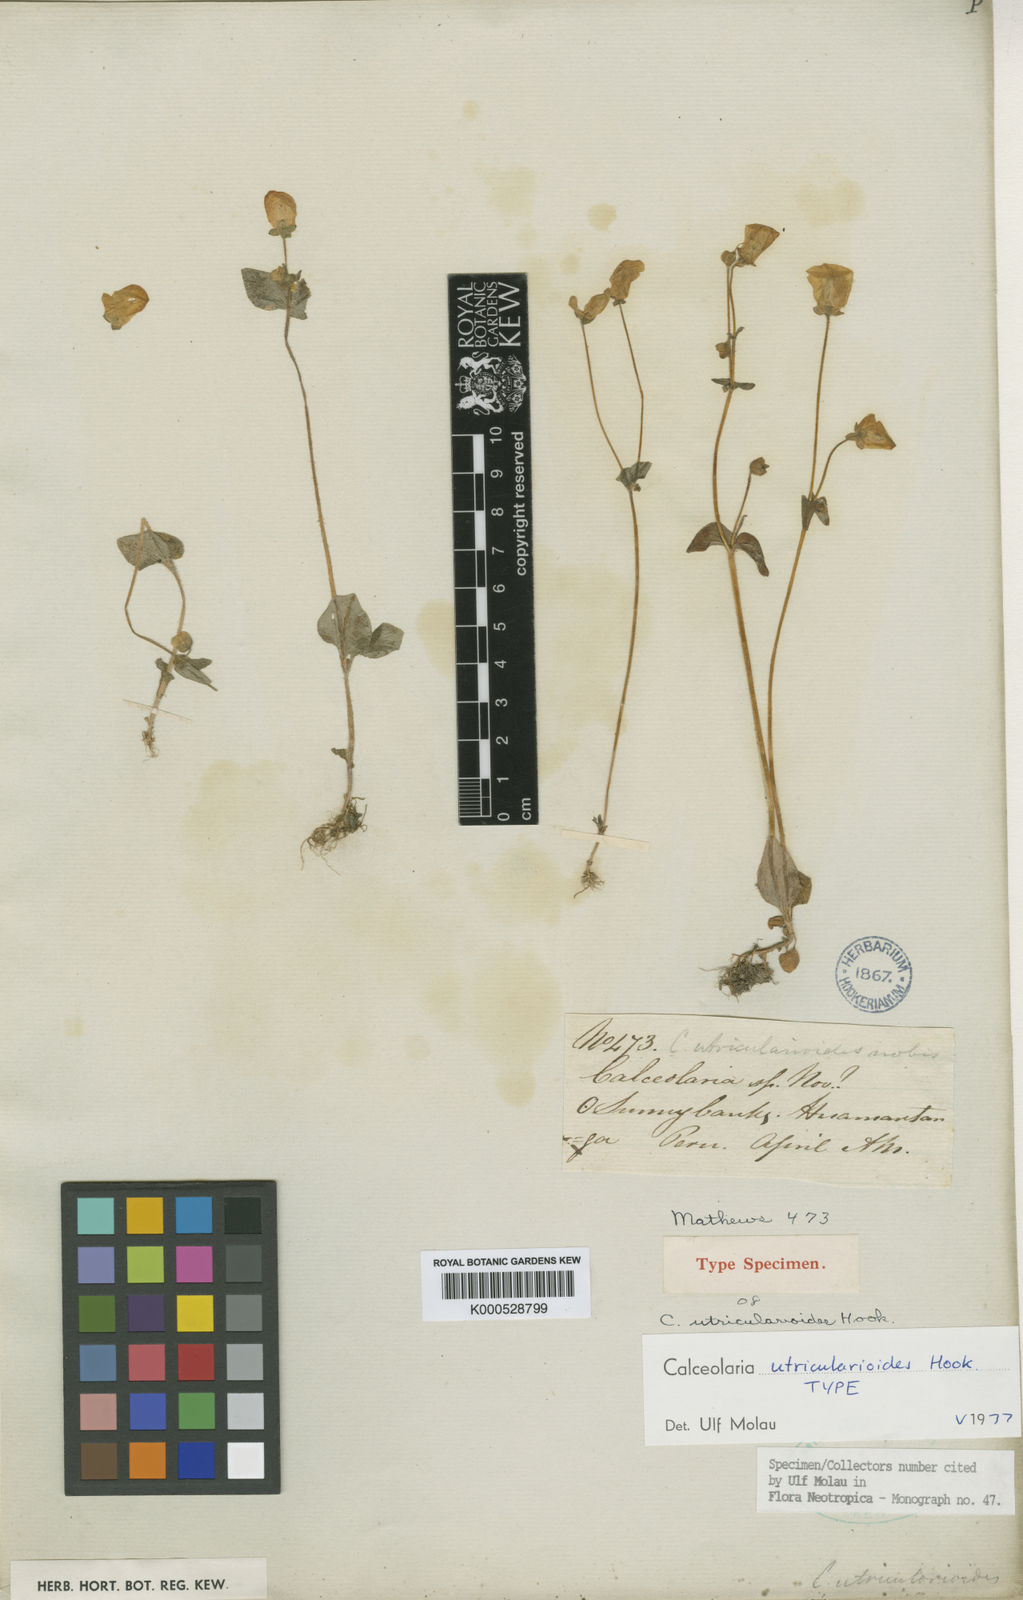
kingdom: Plantae
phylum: Tracheophyta
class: Magnoliopsida
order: Lamiales
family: Calceolariaceae
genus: Calceolaria
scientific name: Calceolaria
